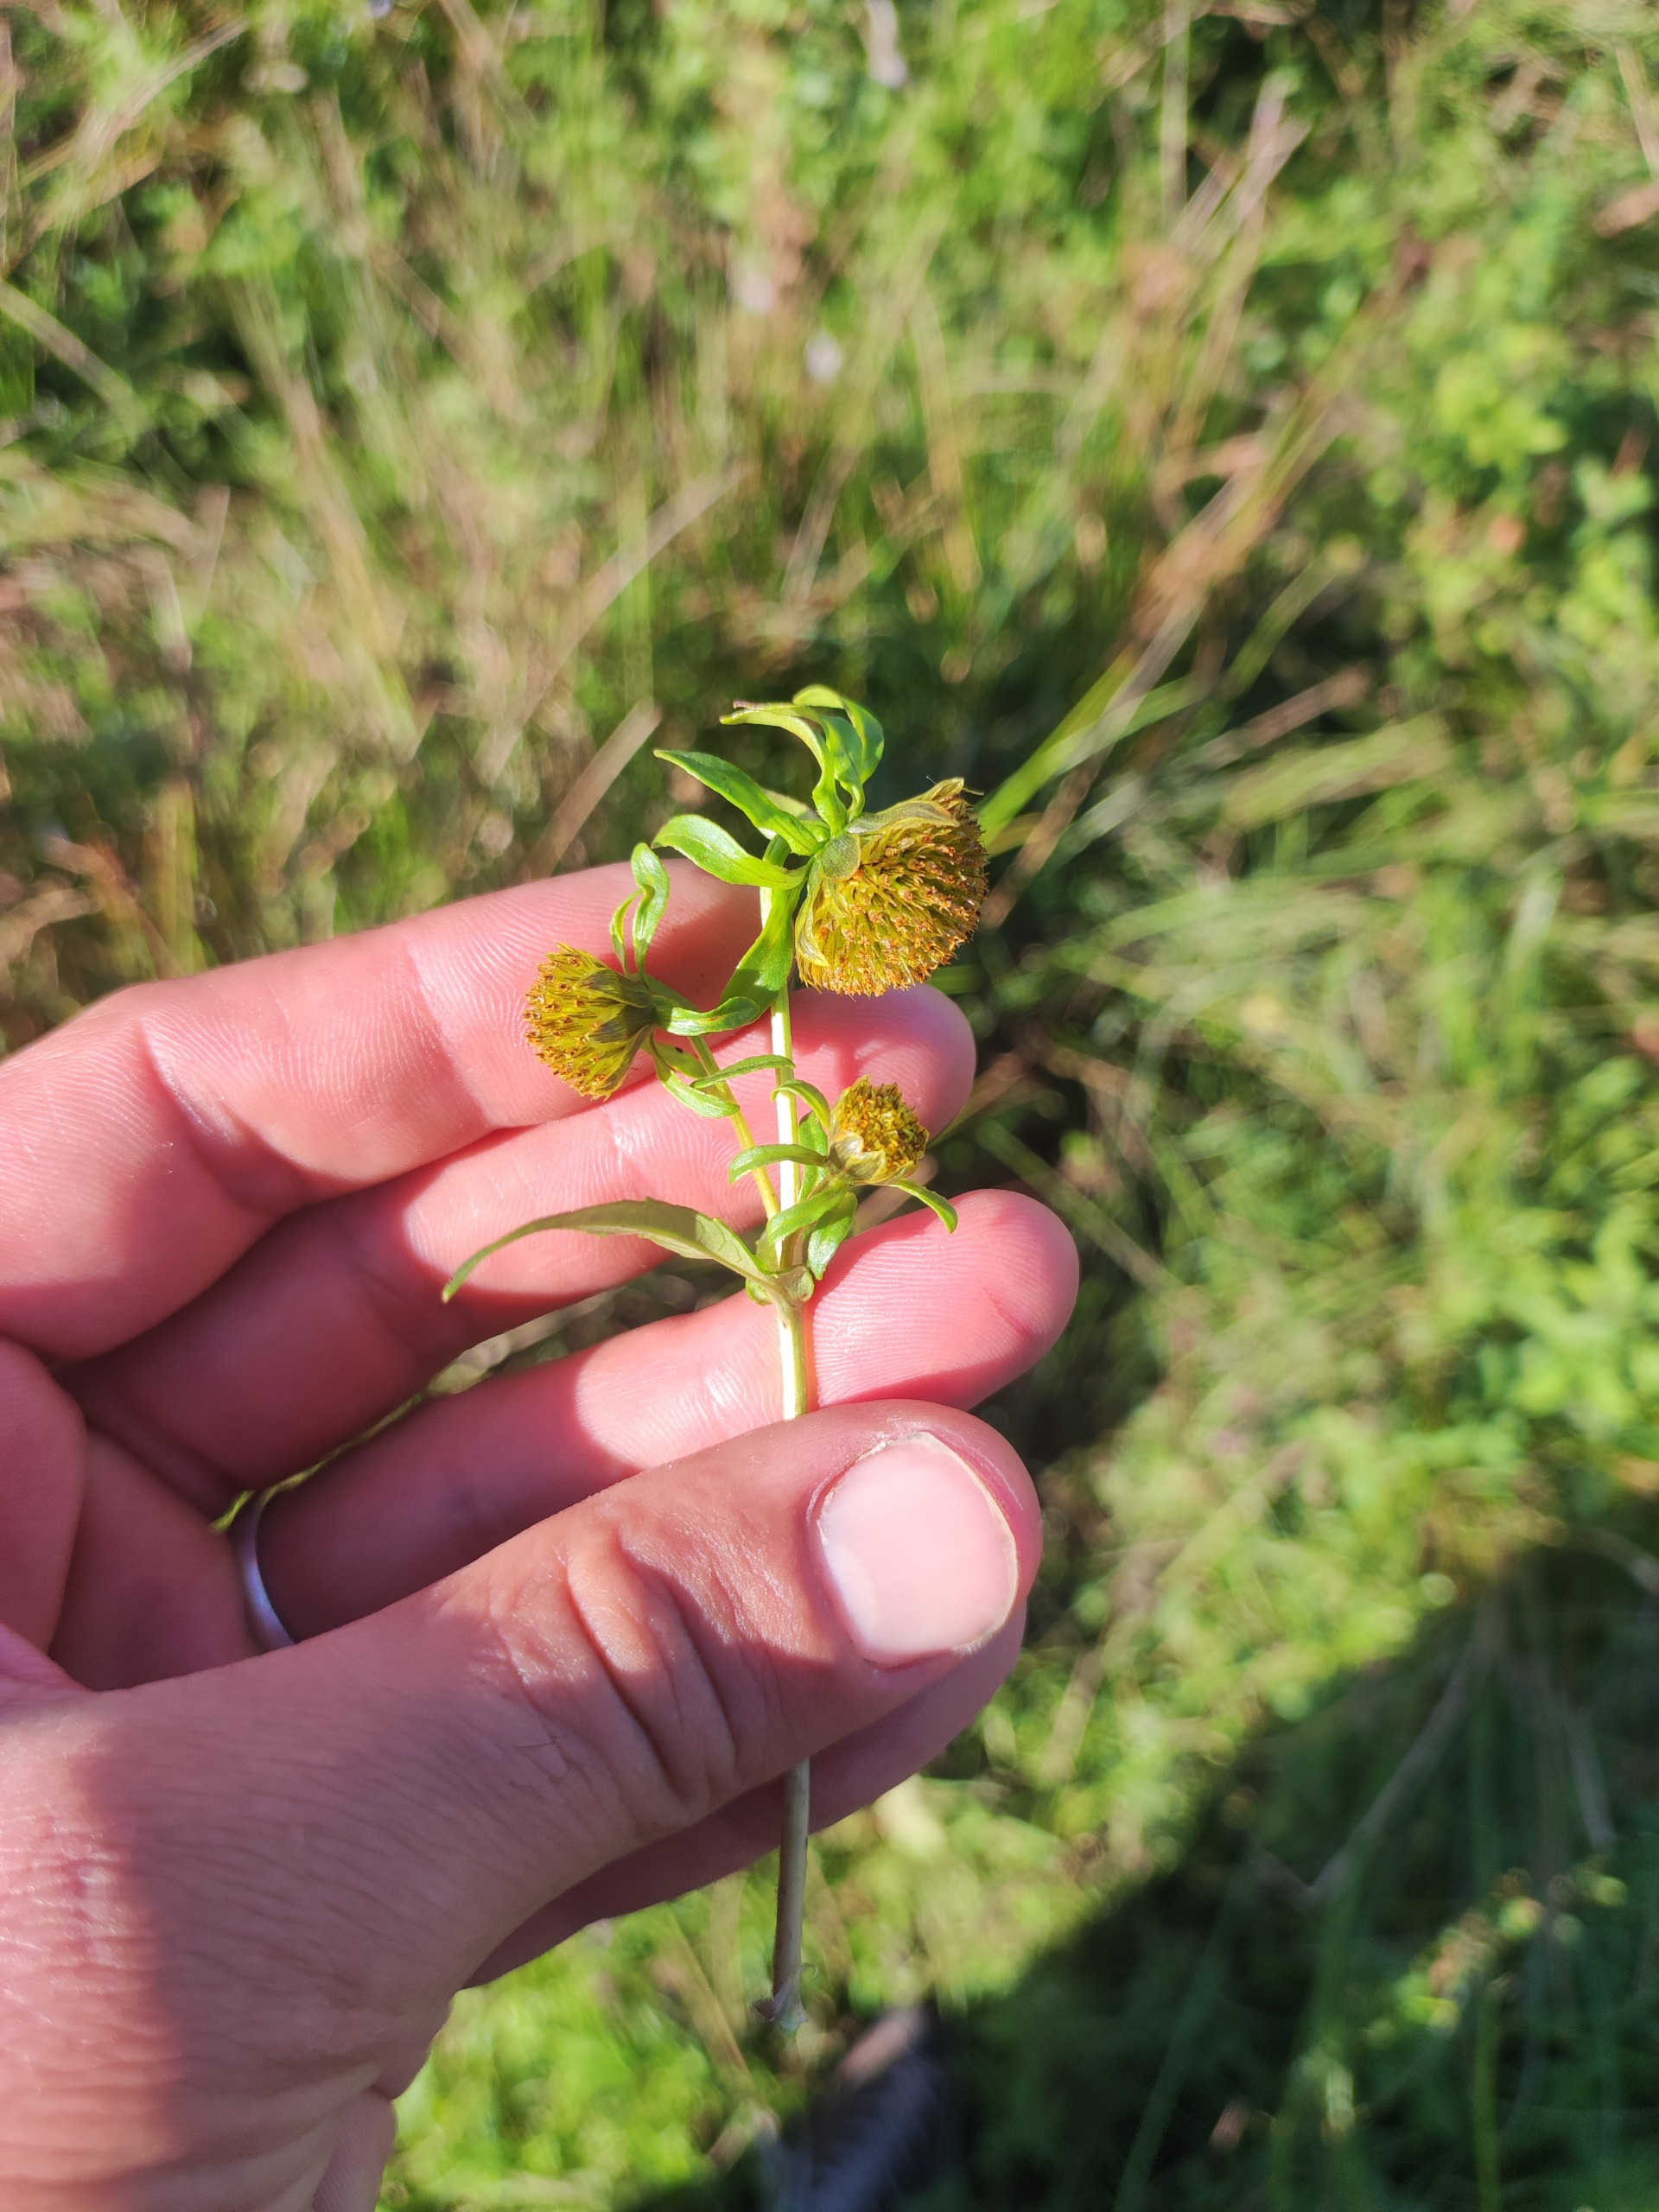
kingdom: Plantae
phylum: Tracheophyta
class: Magnoliopsida
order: Asterales
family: Asteraceae
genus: Bidens
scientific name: Bidens cernua
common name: Nikkende brøndsel
